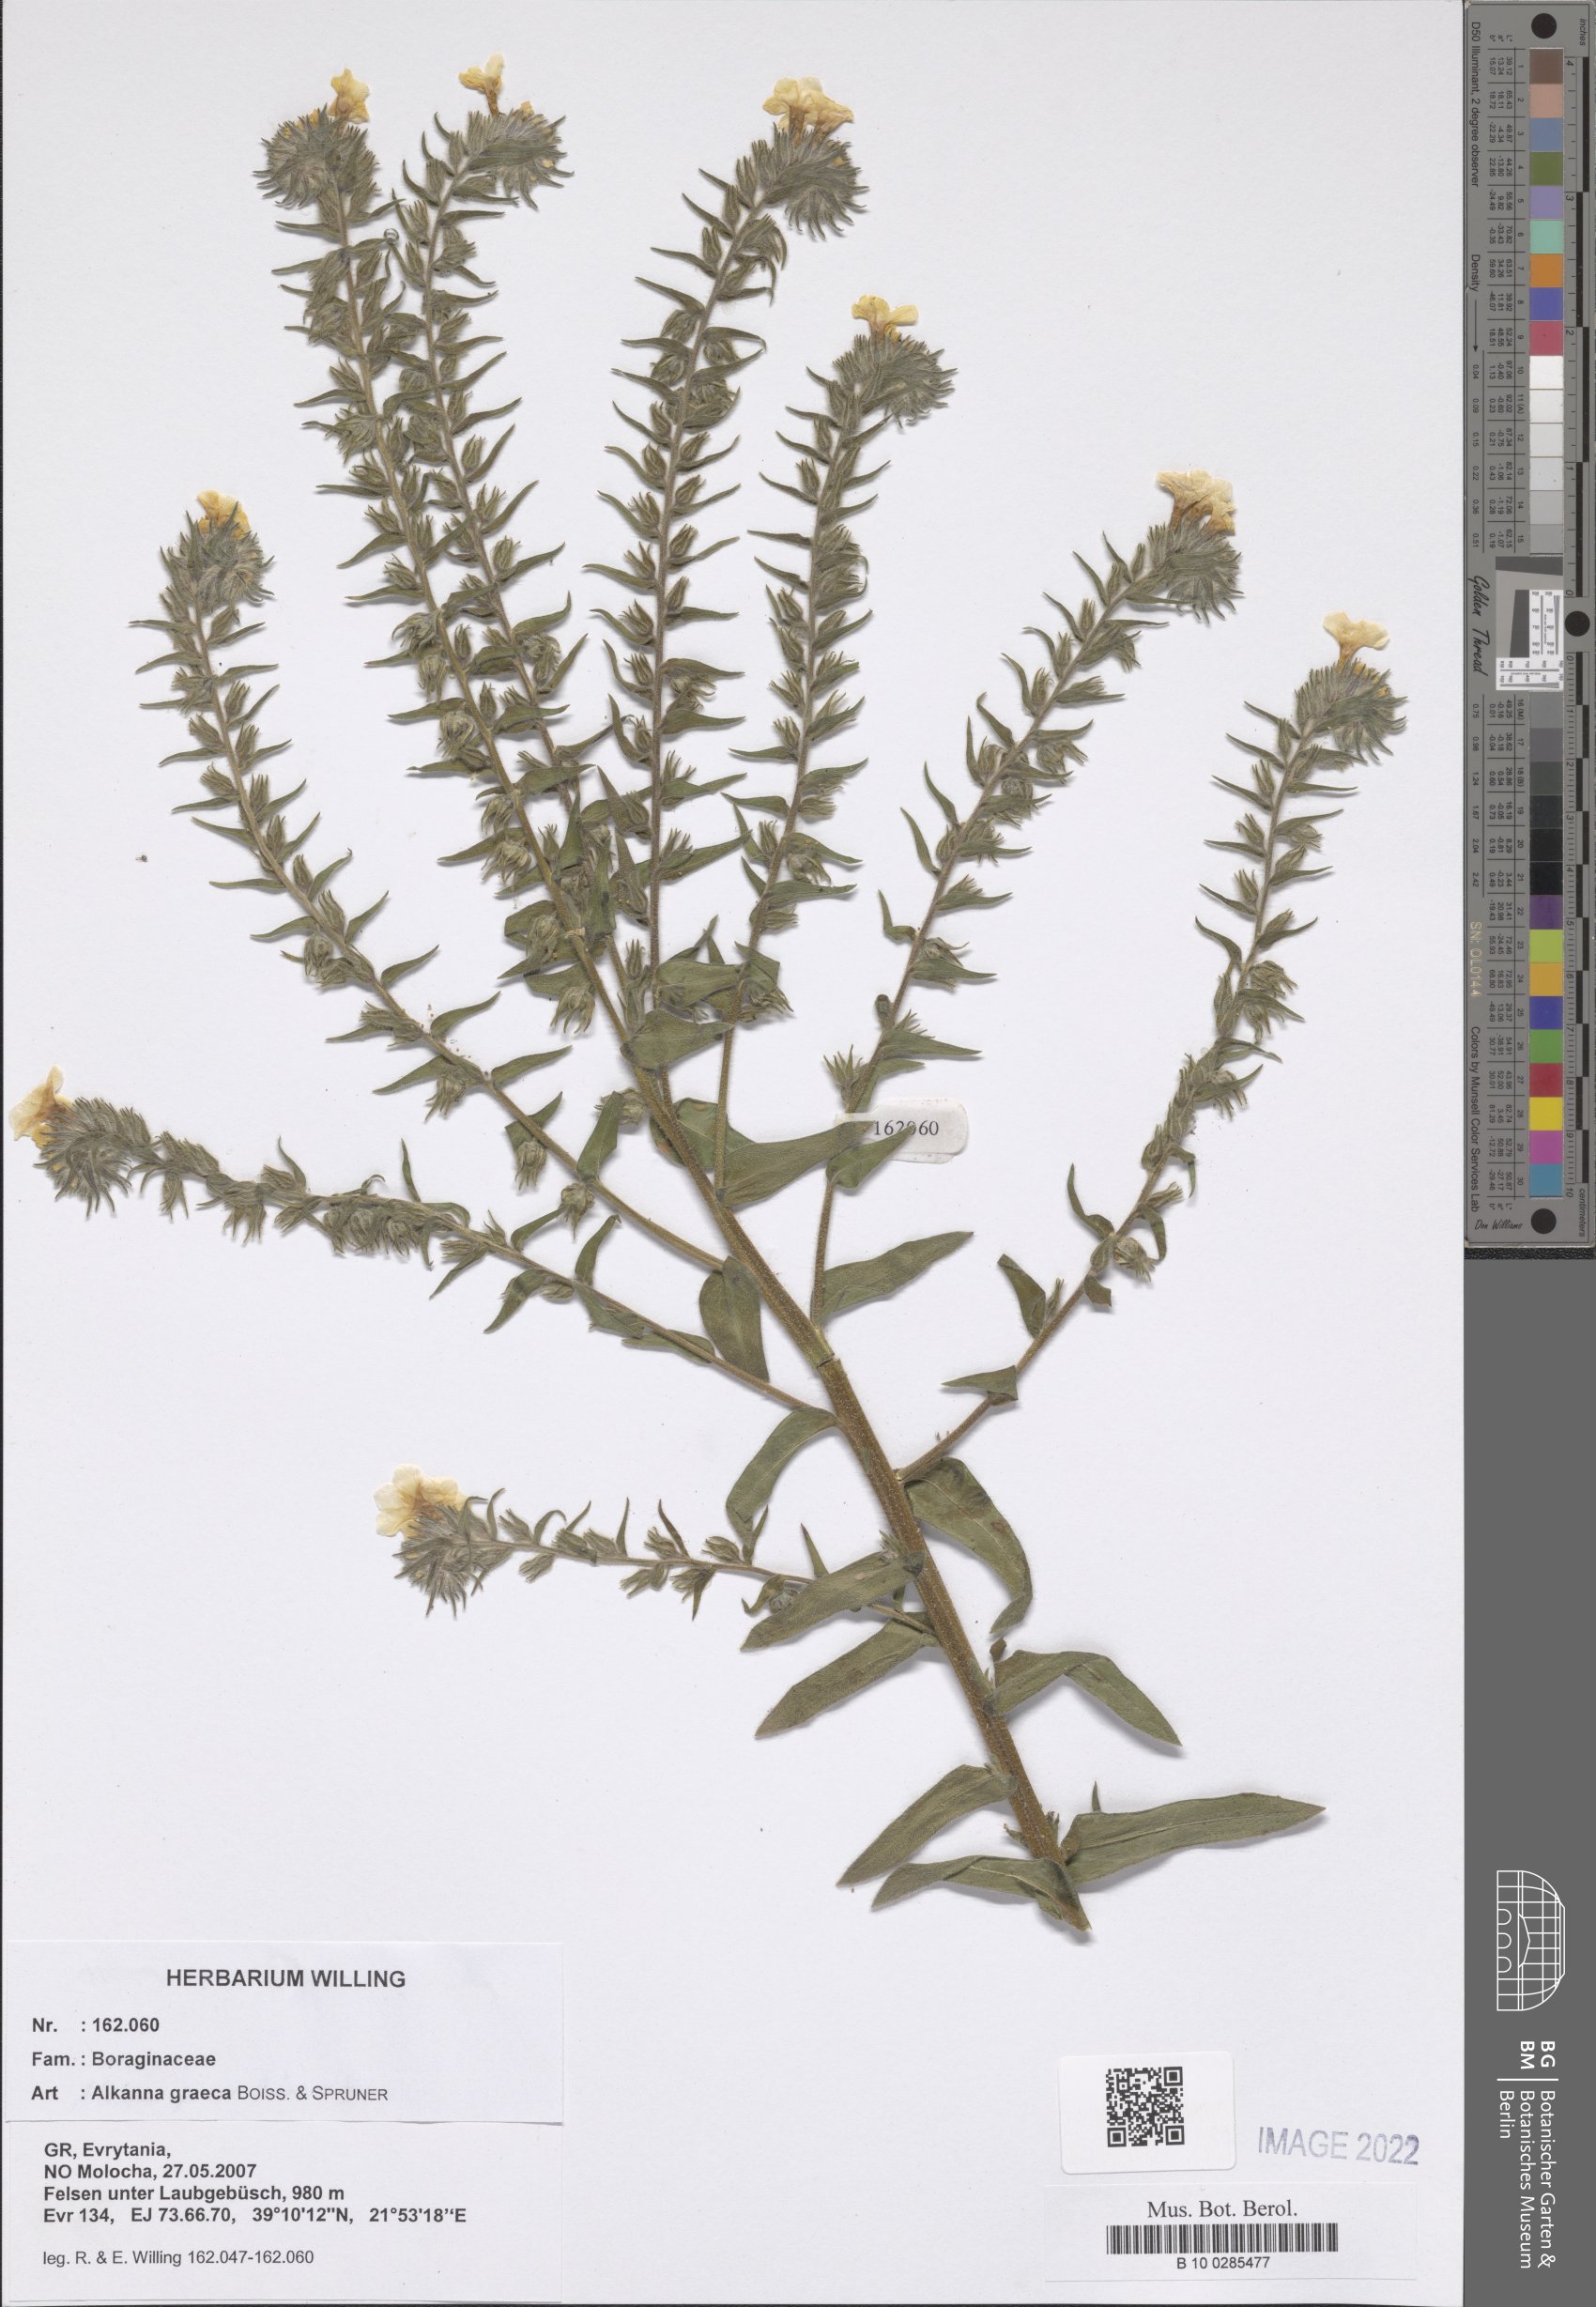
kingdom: Plantae
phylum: Tracheophyta
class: Magnoliopsida
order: Boraginales
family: Boraginaceae
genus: Alkanna
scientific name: Alkanna graeca
